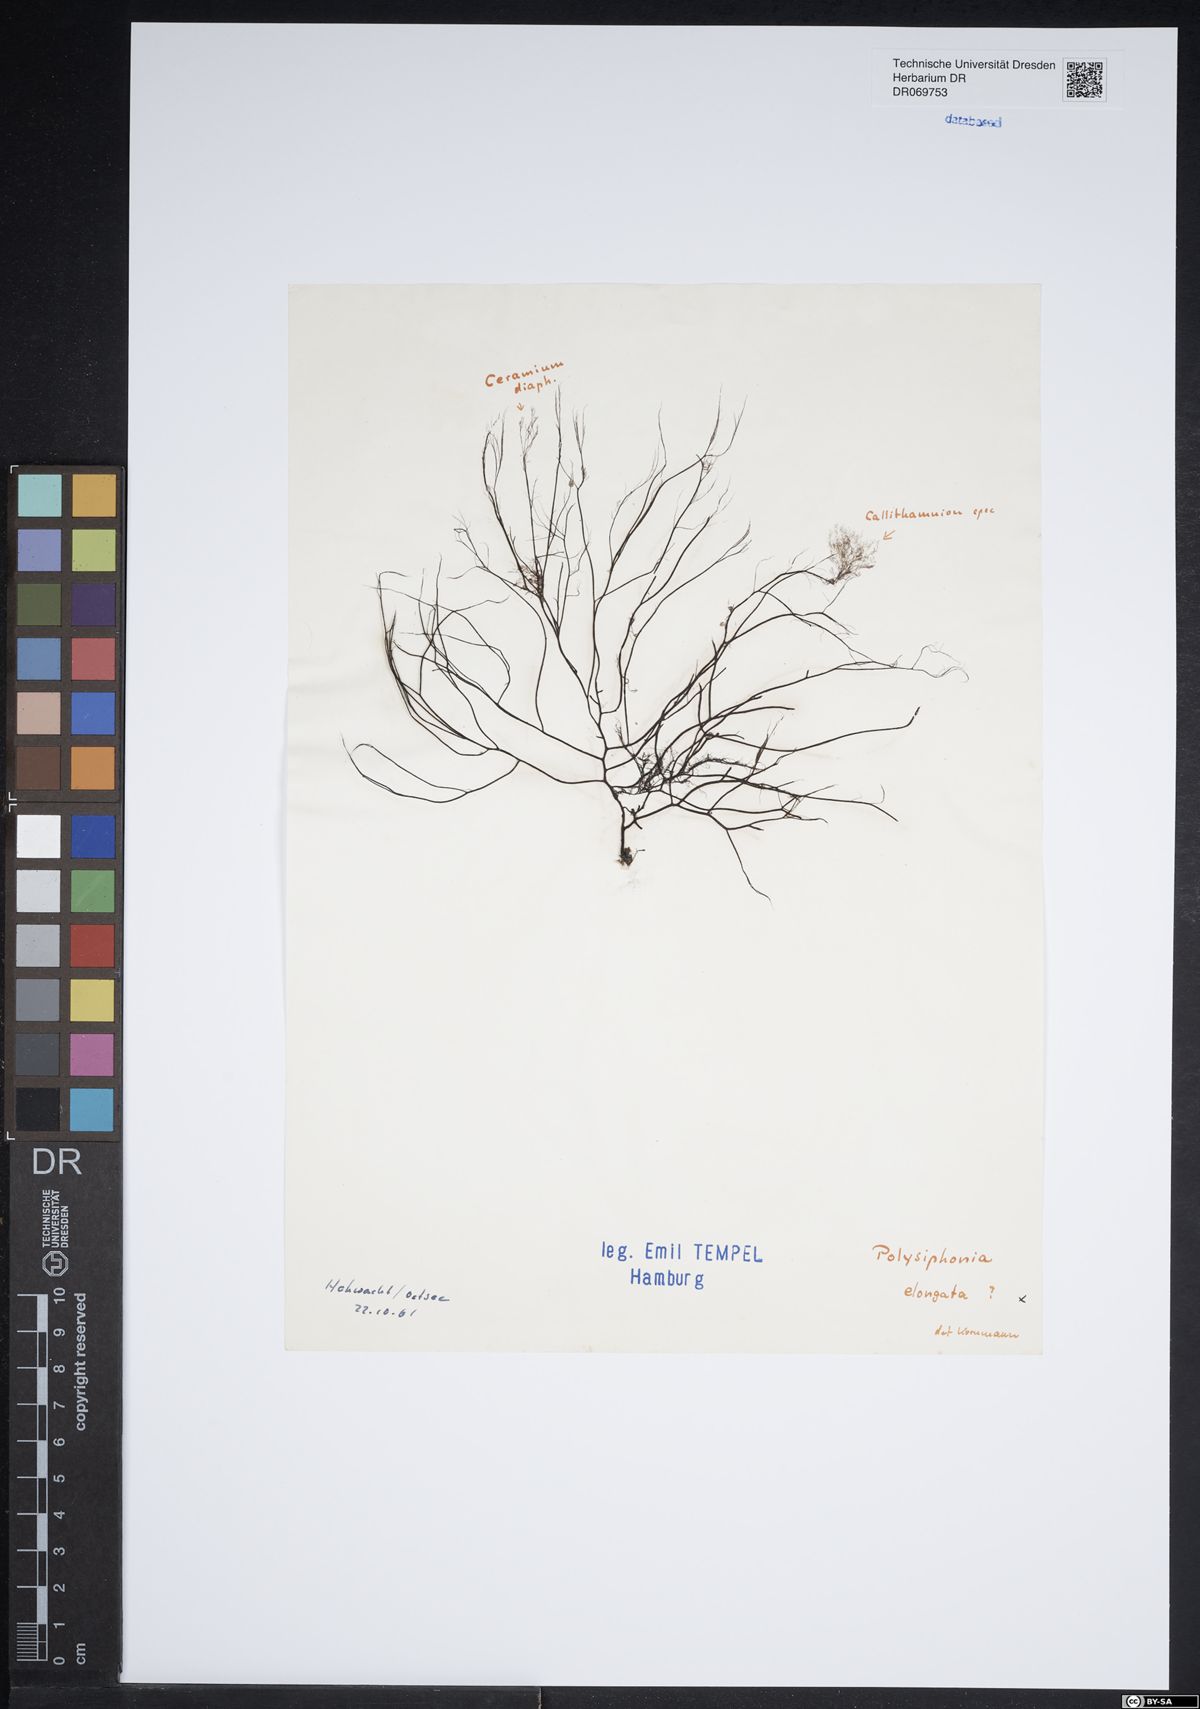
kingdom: Plantae
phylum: Rhodophyta
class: Florideophyceae
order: Ceramiales
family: Rhodomelaceae
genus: Vertebrata
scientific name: Vertebrata spec
